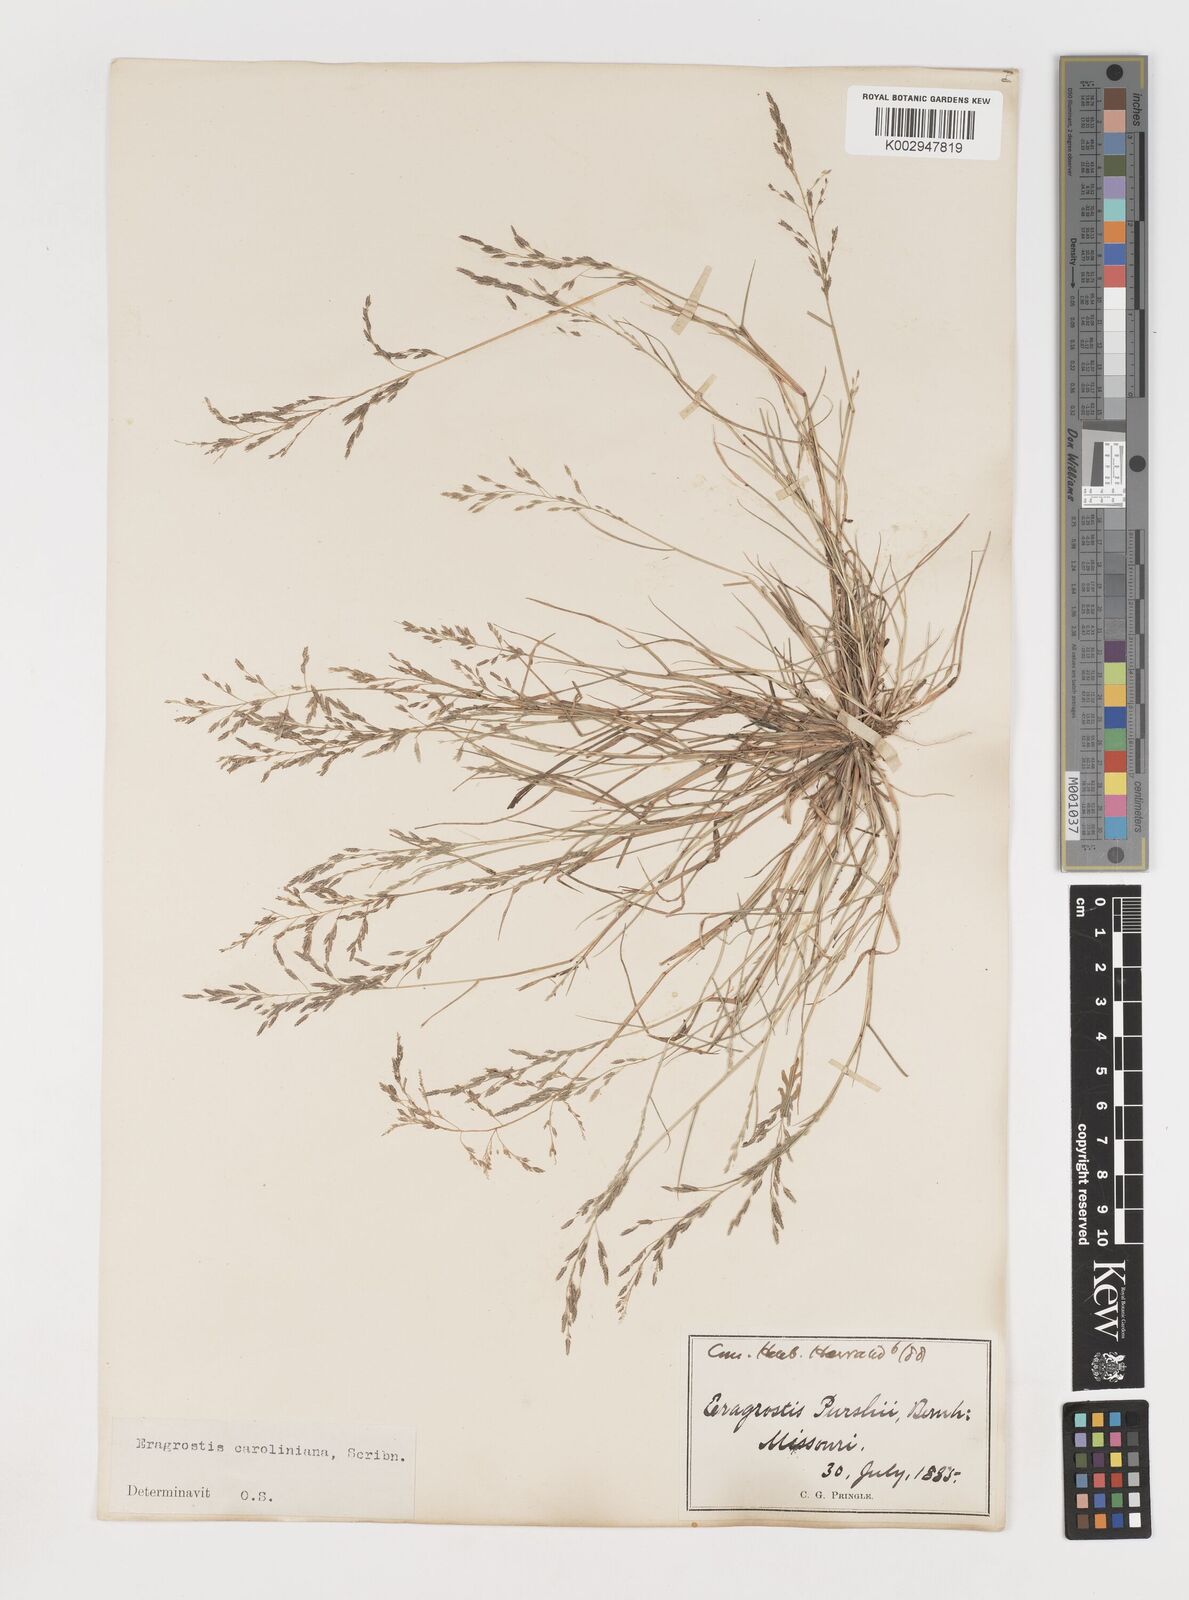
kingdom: Plantae
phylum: Tracheophyta
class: Liliopsida
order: Poales
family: Poaceae
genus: Eragrostis
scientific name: Eragrostis pectinacea
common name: Tufted lovegrass
